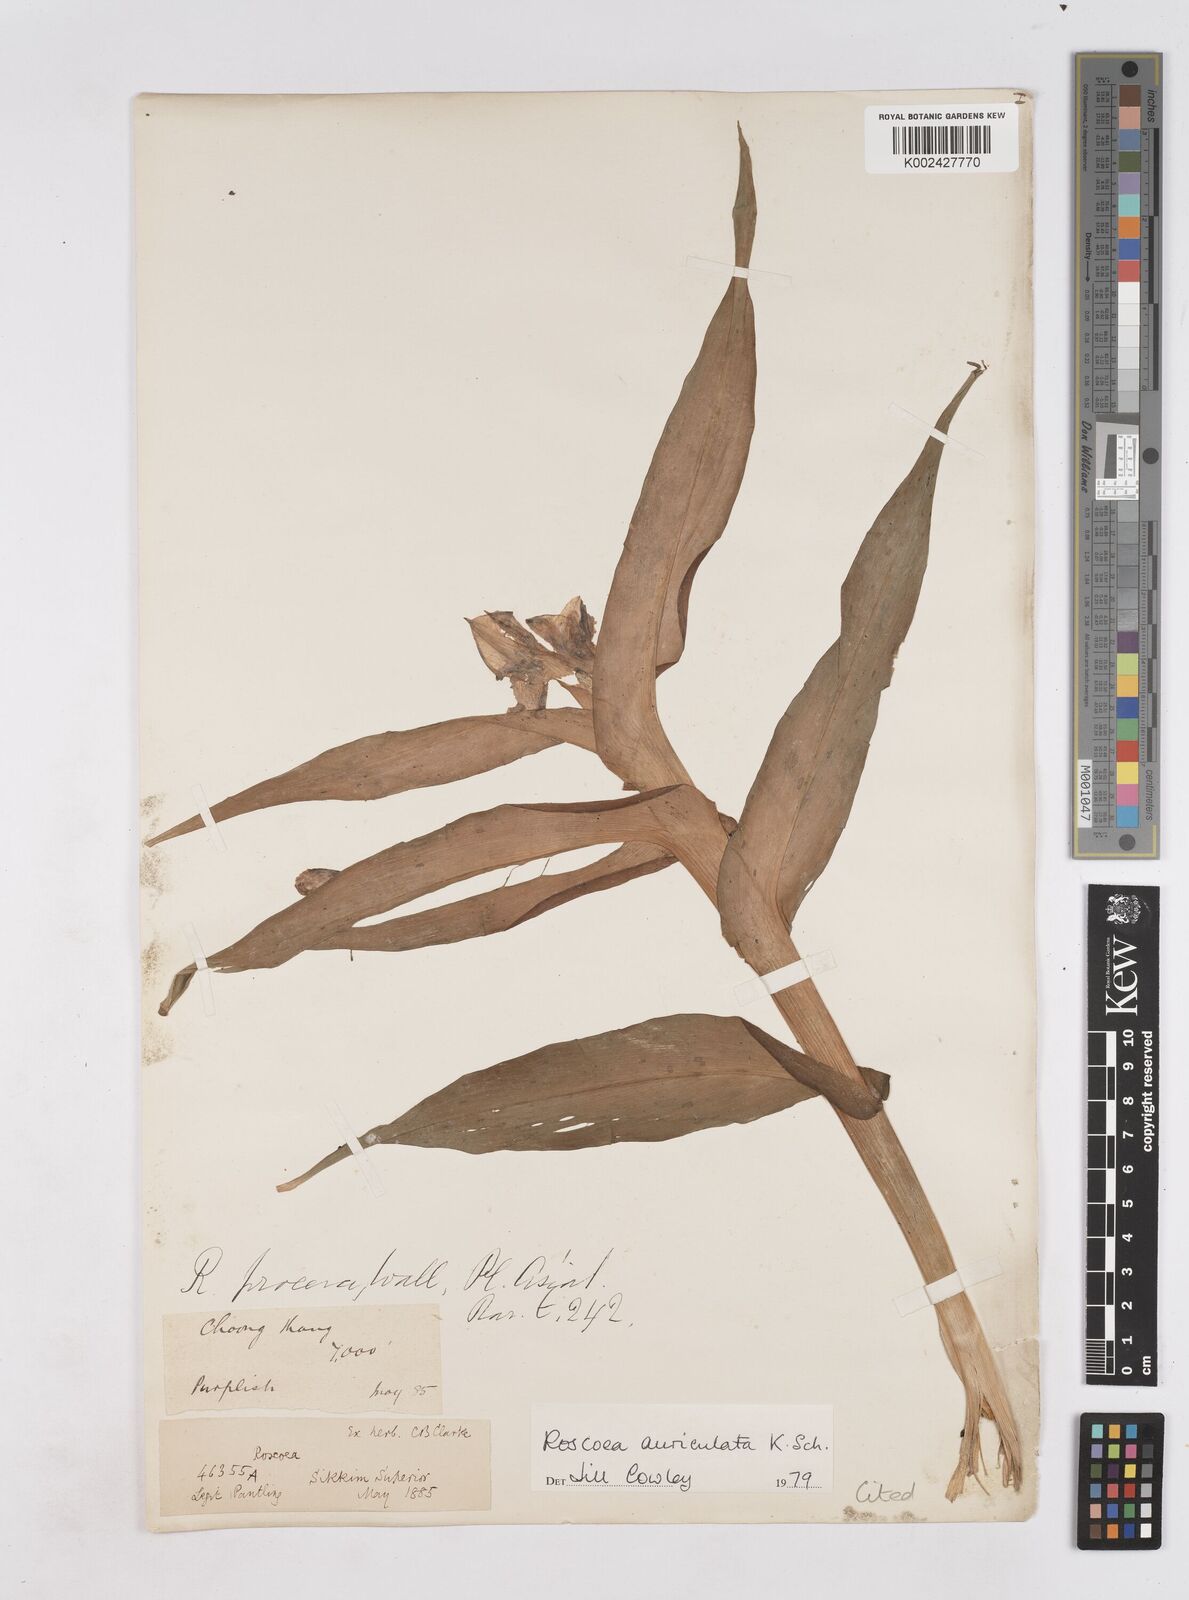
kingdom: Plantae
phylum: Tracheophyta
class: Liliopsida
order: Zingiberales
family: Zingiberaceae
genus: Roscoea
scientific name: Roscoea auriculata
